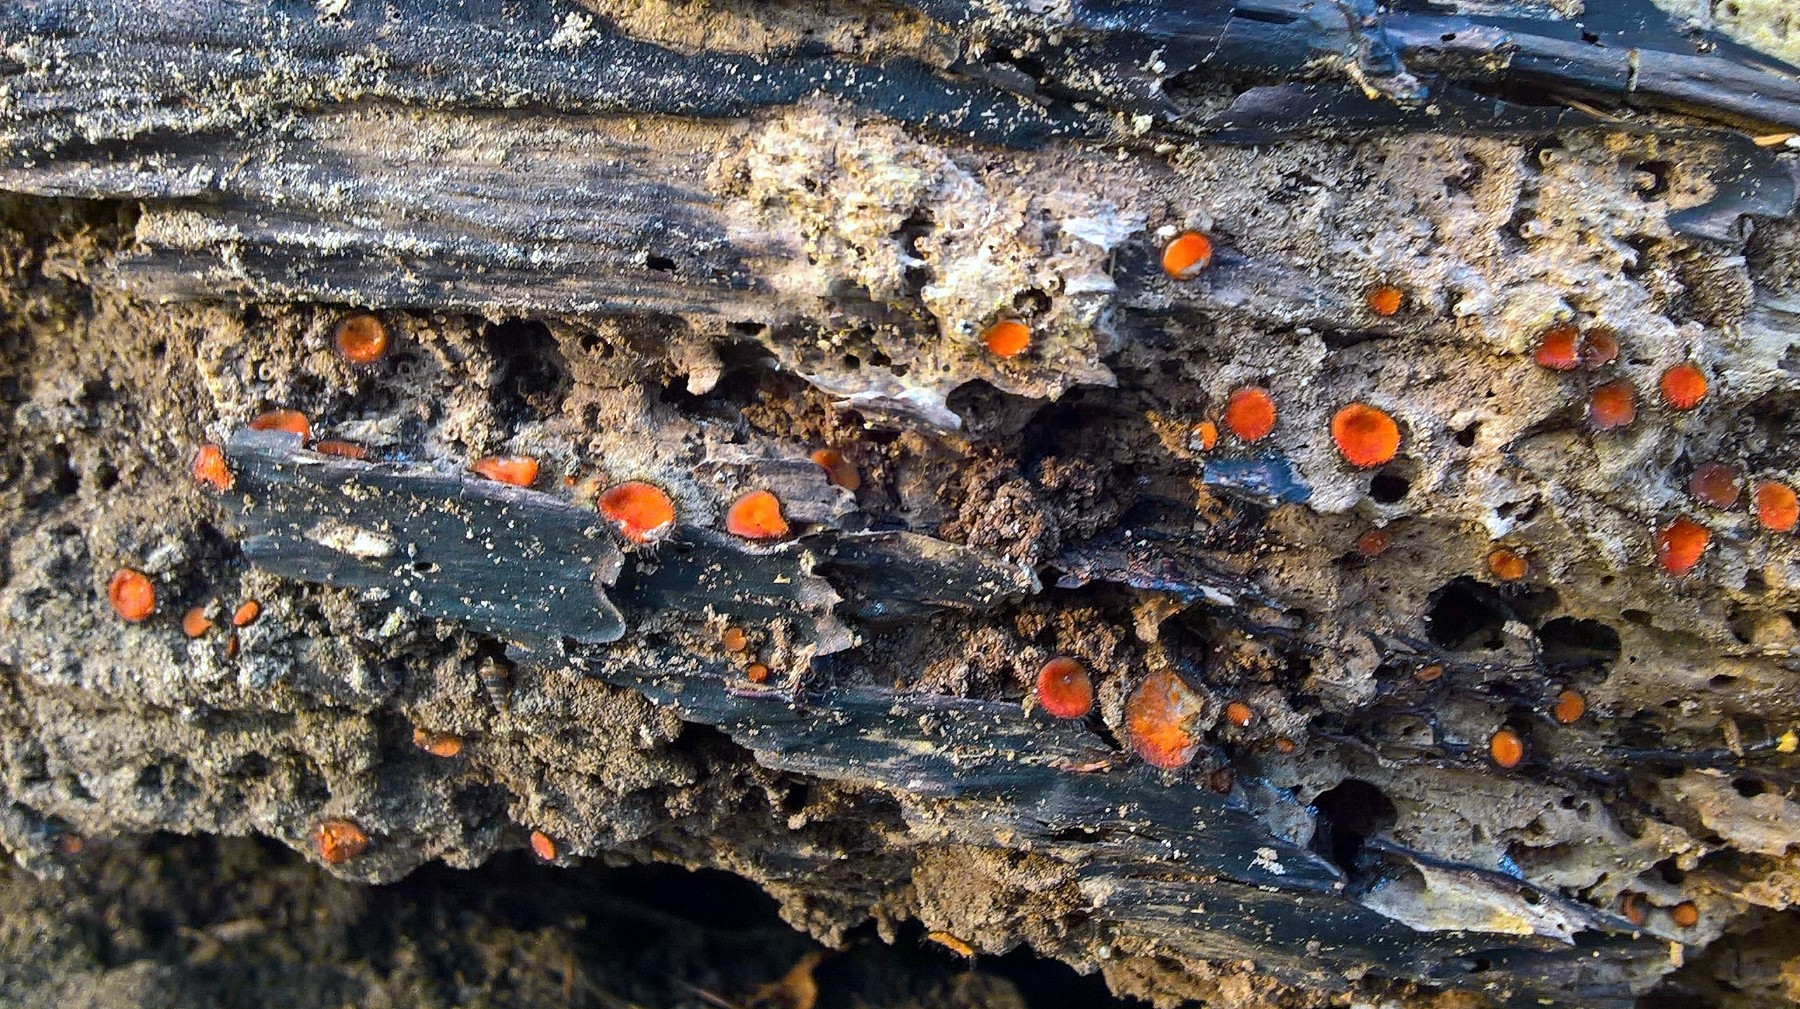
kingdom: Fungi
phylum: Ascomycota
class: Pezizomycetes
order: Pezizales
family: Pyronemataceae
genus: Scutellinia
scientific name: Scutellinia
